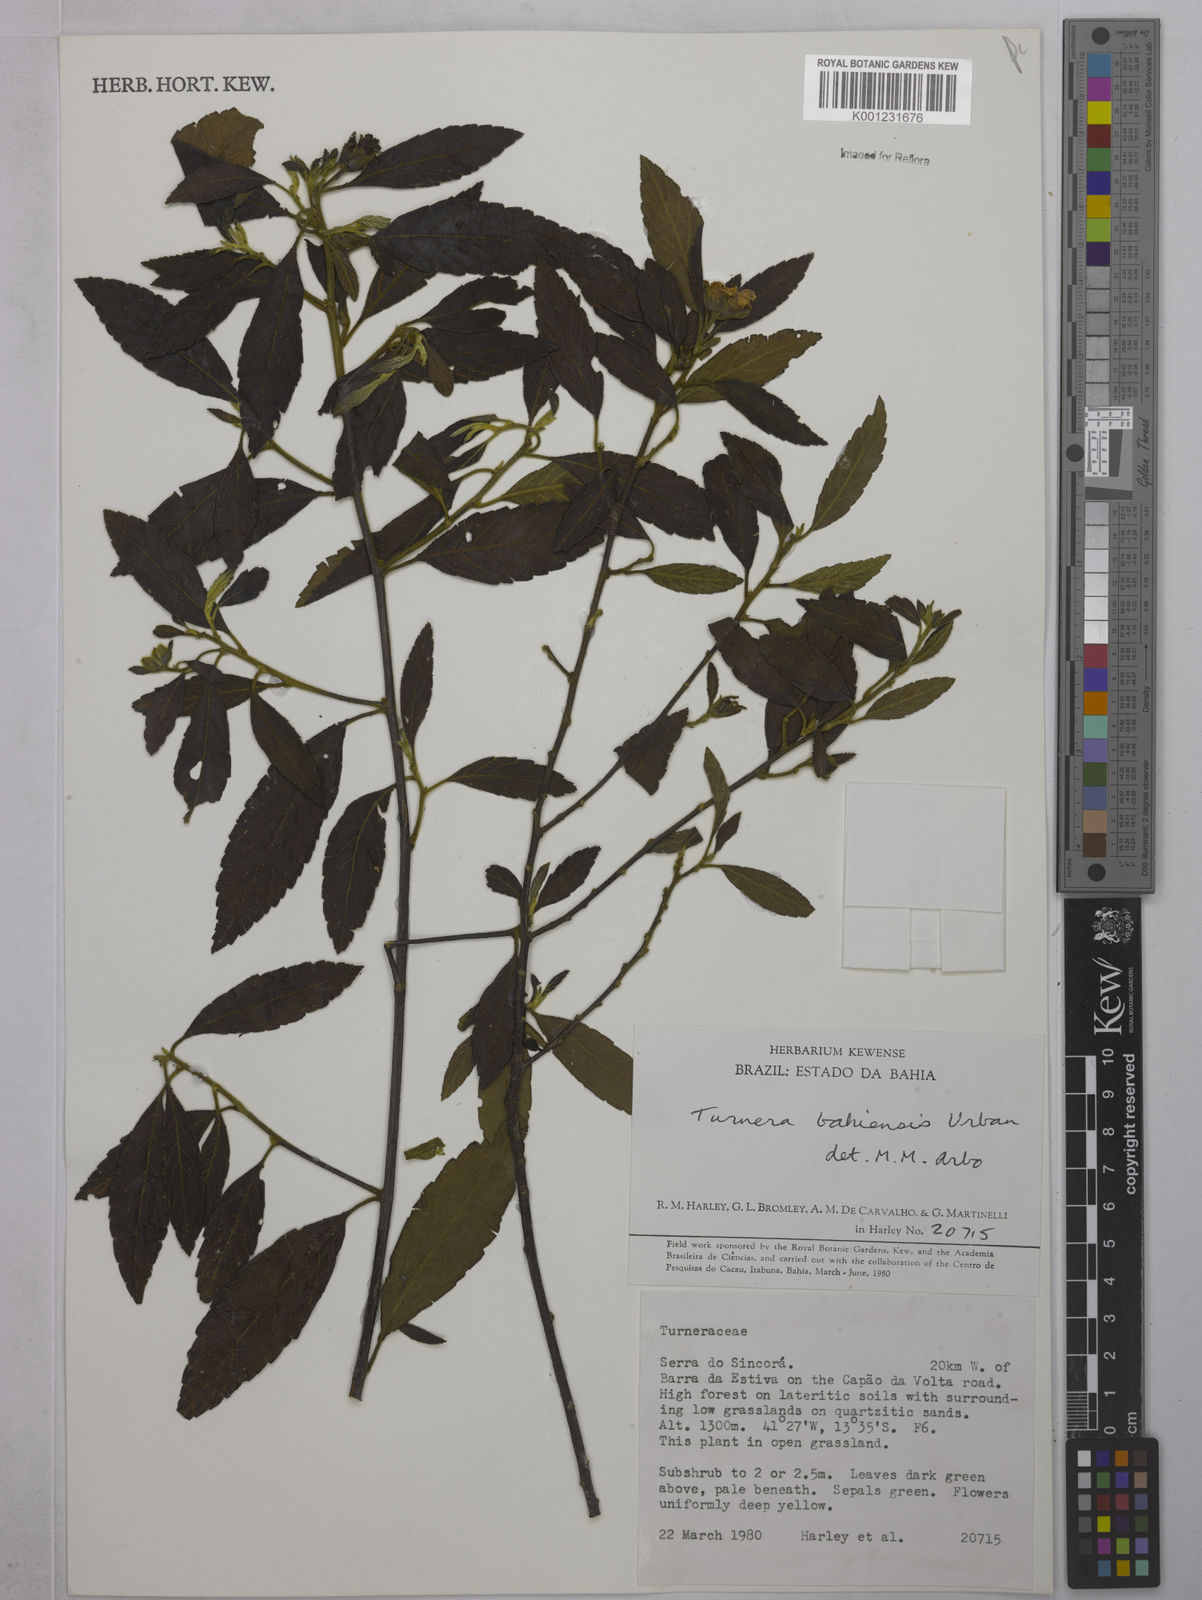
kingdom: Plantae
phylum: Tracheophyta
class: Magnoliopsida
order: Malpighiales
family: Turneraceae
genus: Turnera
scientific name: Turnera bahiensis
